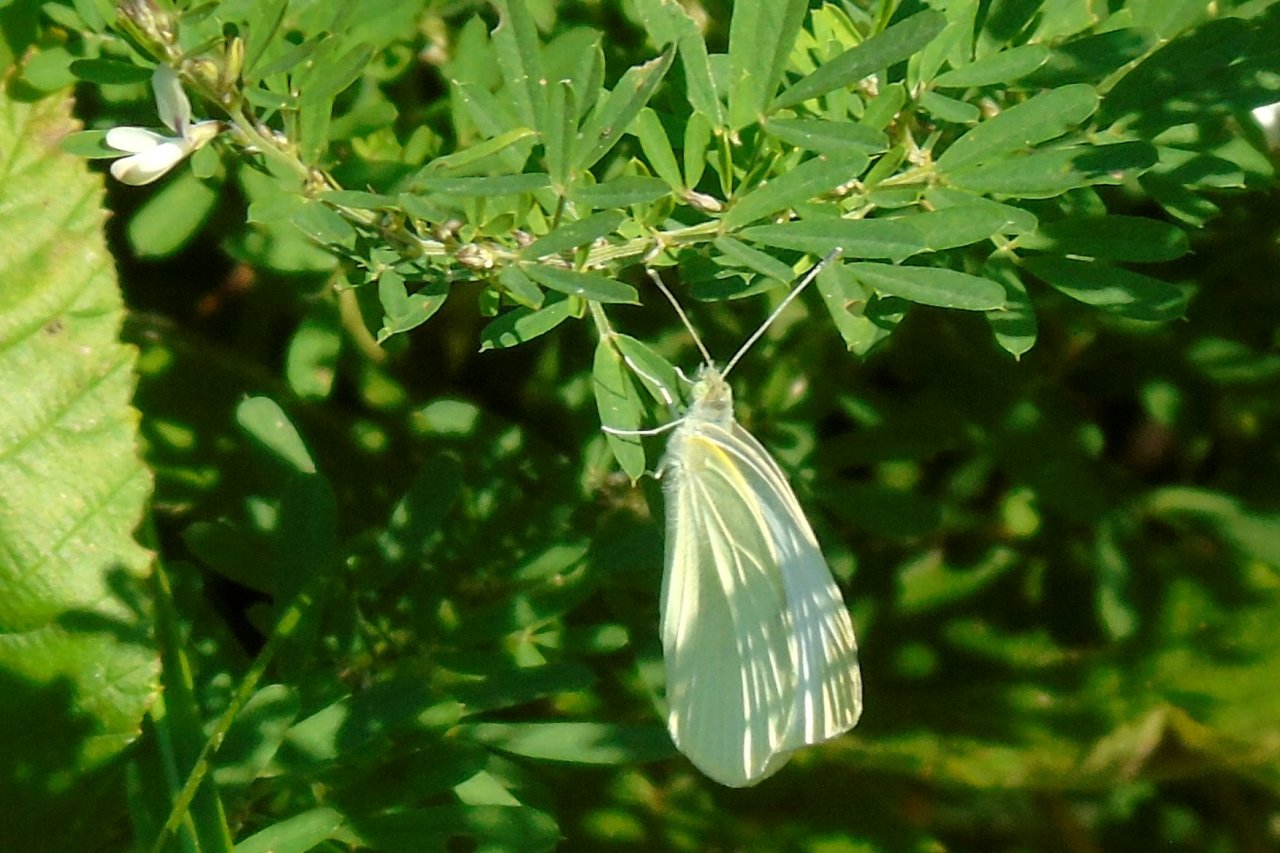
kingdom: Animalia
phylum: Arthropoda
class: Insecta
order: Lepidoptera
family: Pieridae
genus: Pieris
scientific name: Pieris rapae
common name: Cabbage White
